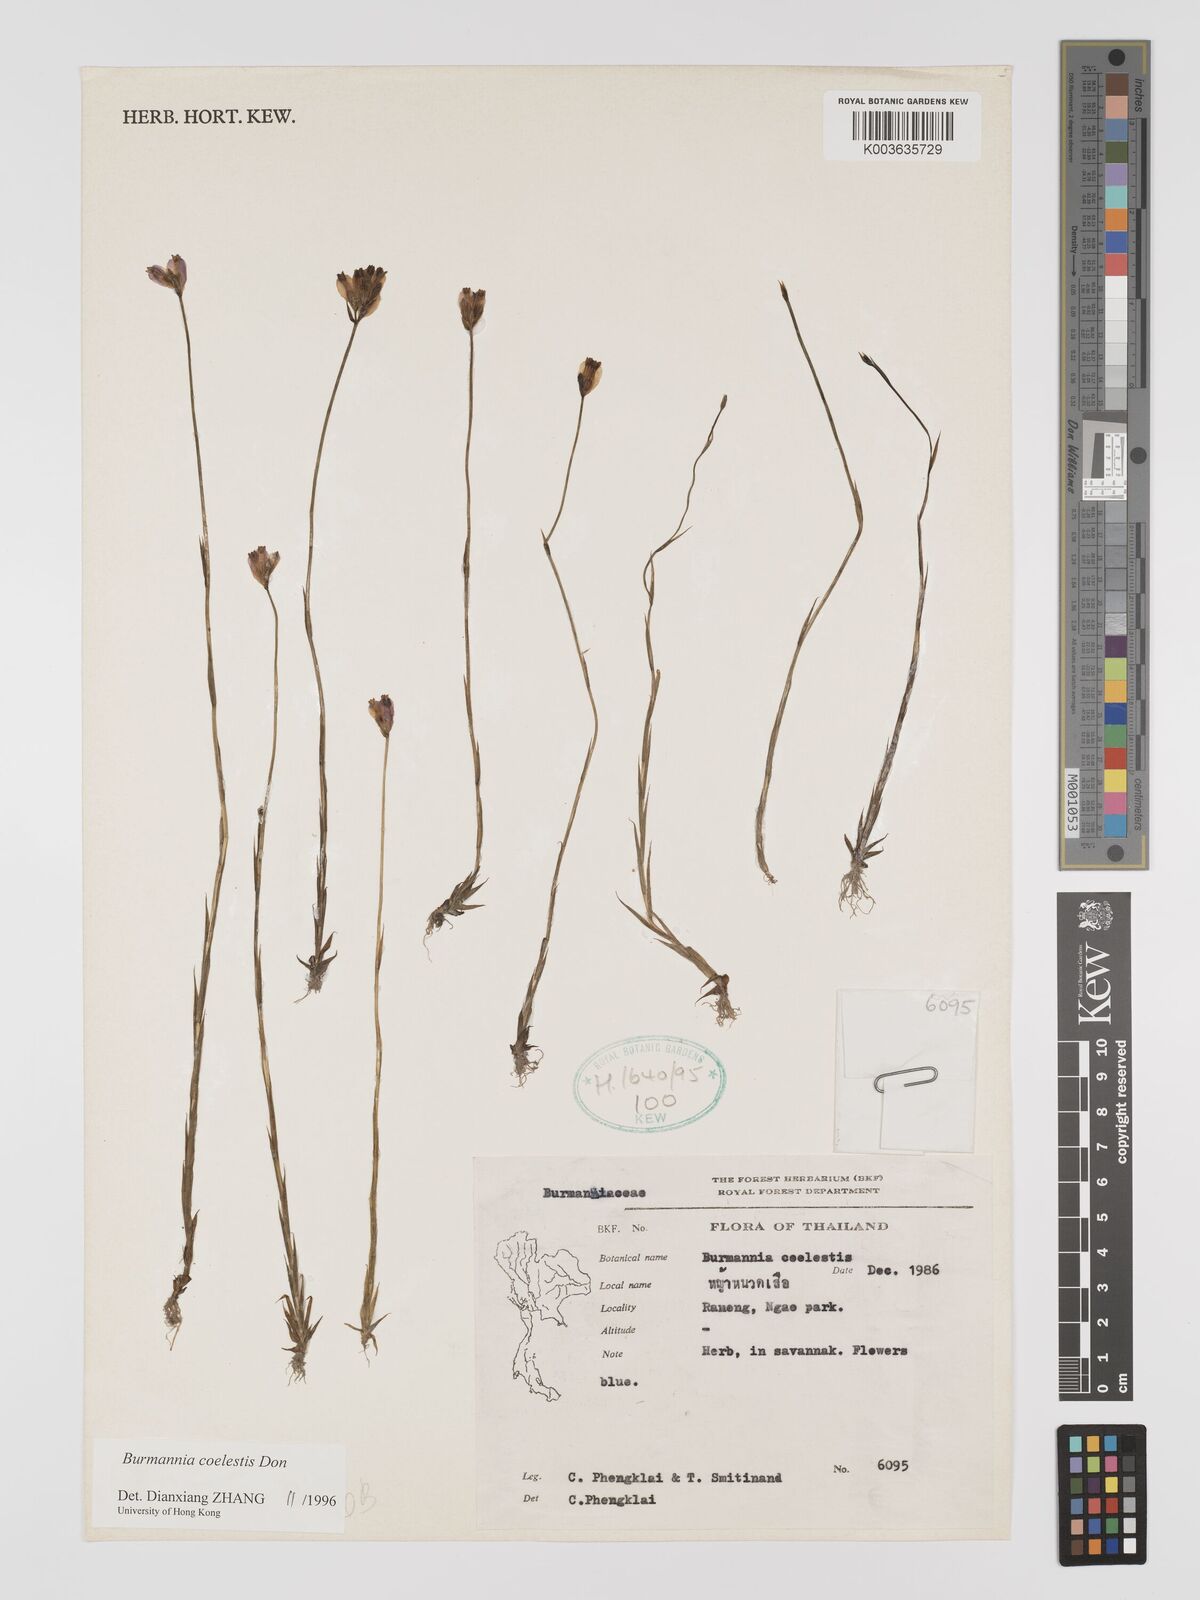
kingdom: Plantae
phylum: Tracheophyta
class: Liliopsida
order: Dioscoreales
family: Burmanniaceae
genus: Burmannia
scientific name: Burmannia coelestis
